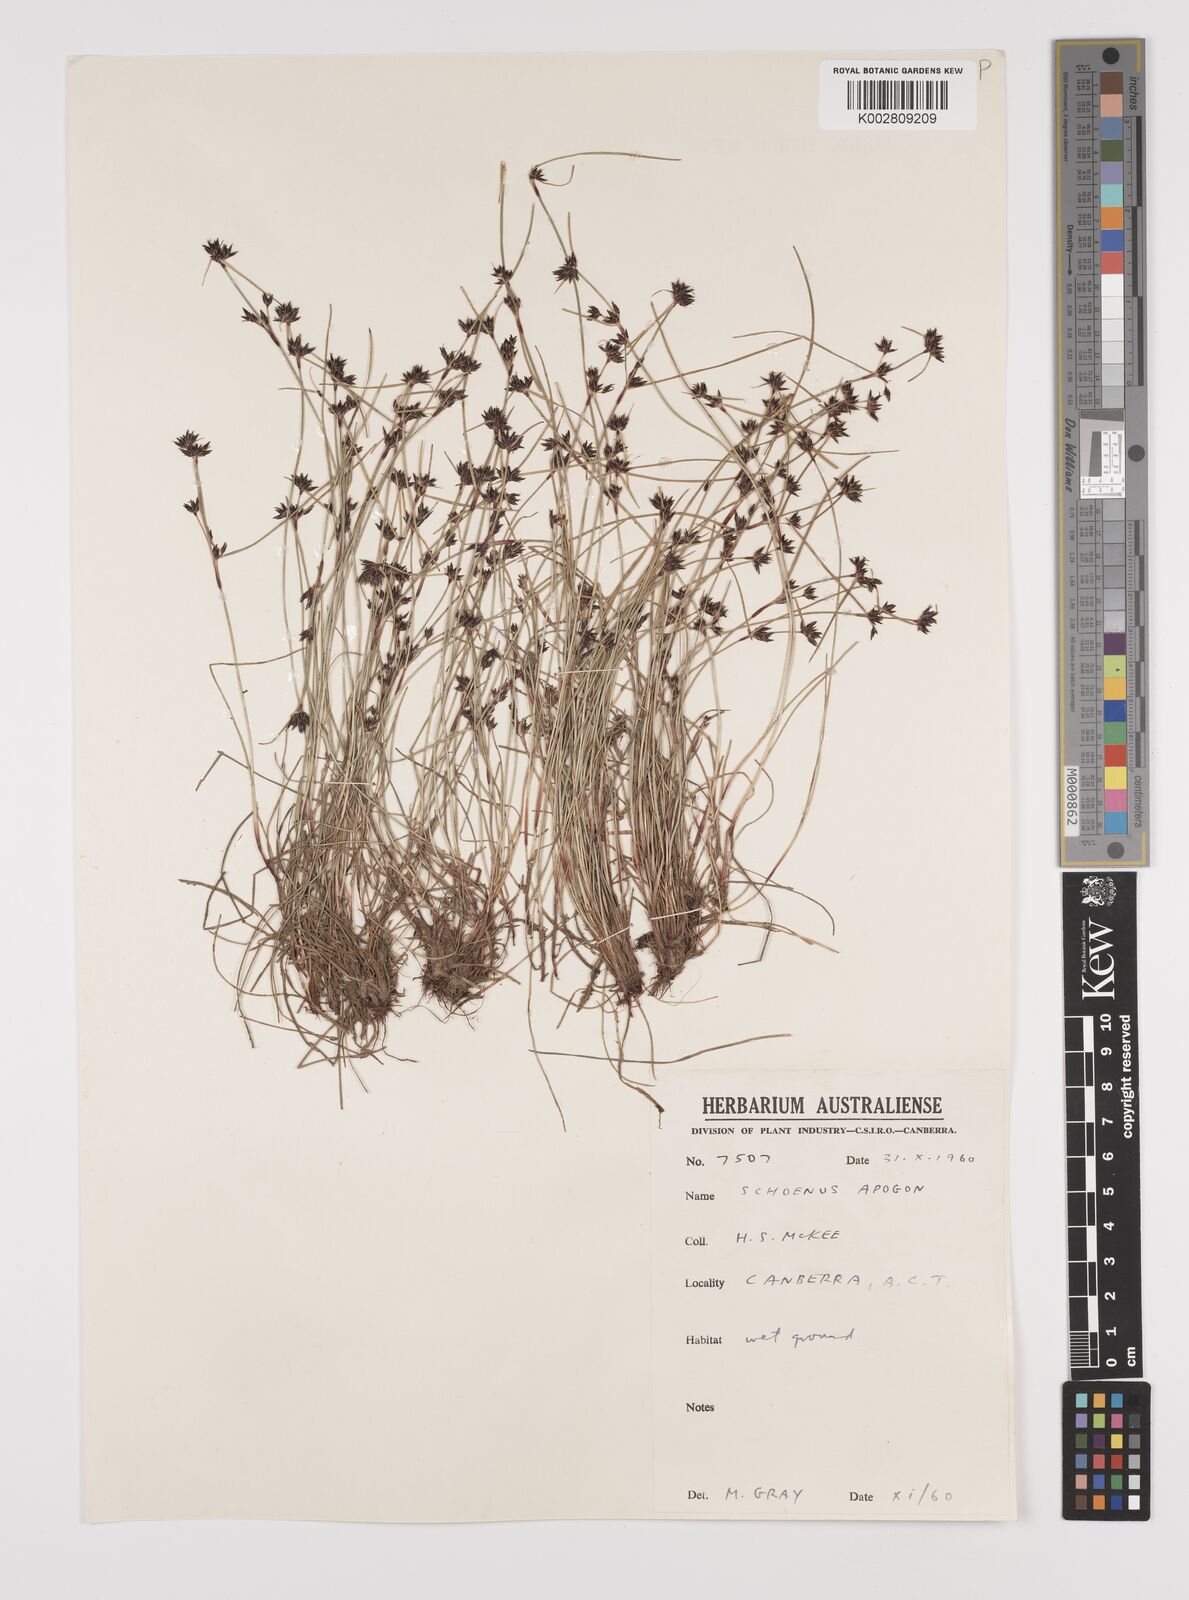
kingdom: Plantae
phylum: Tracheophyta
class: Liliopsida
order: Poales
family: Cyperaceae
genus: Schoenus
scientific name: Schoenus apogon
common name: Smooth bogrush
